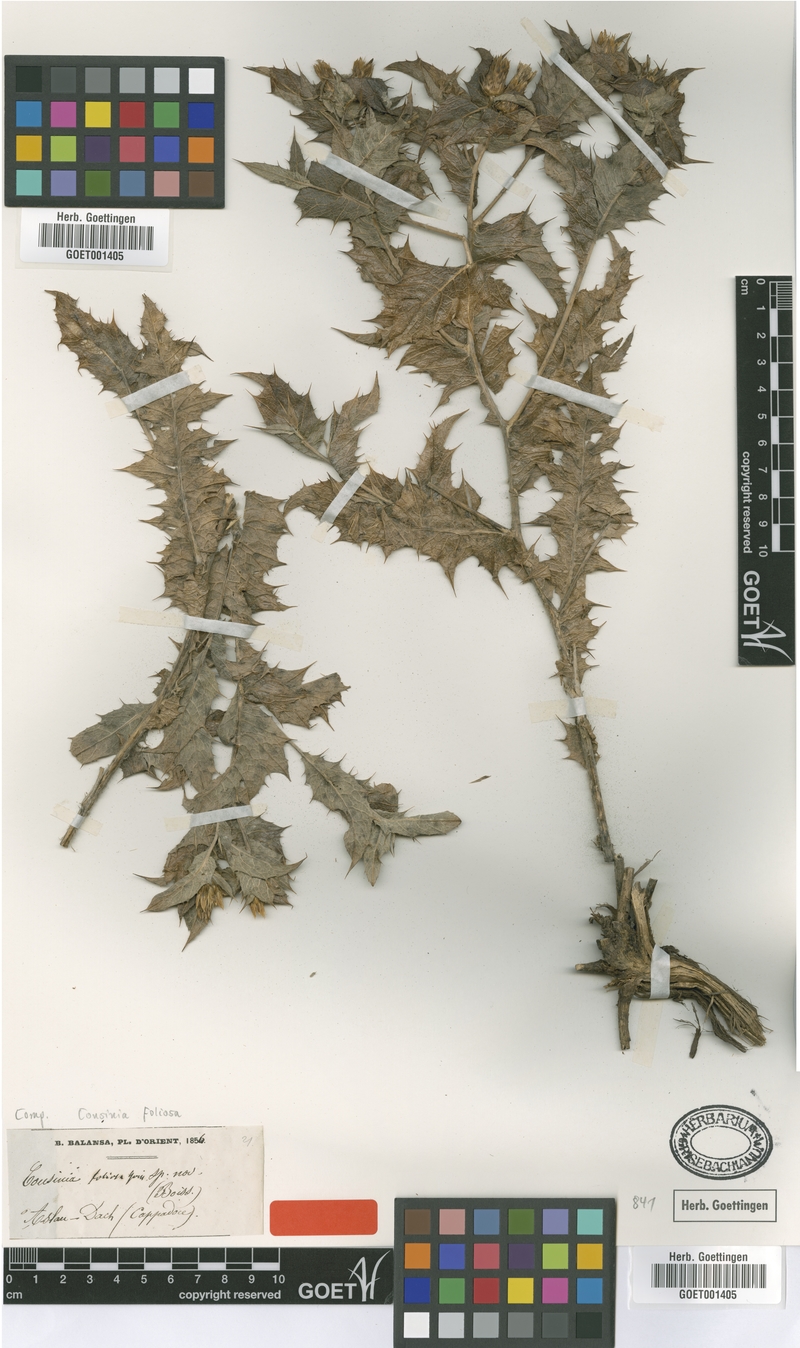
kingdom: Plantae
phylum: Tracheophyta
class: Magnoliopsida
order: Asterales
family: Asteraceae
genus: Cousinia
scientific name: Cousinia foliosa
